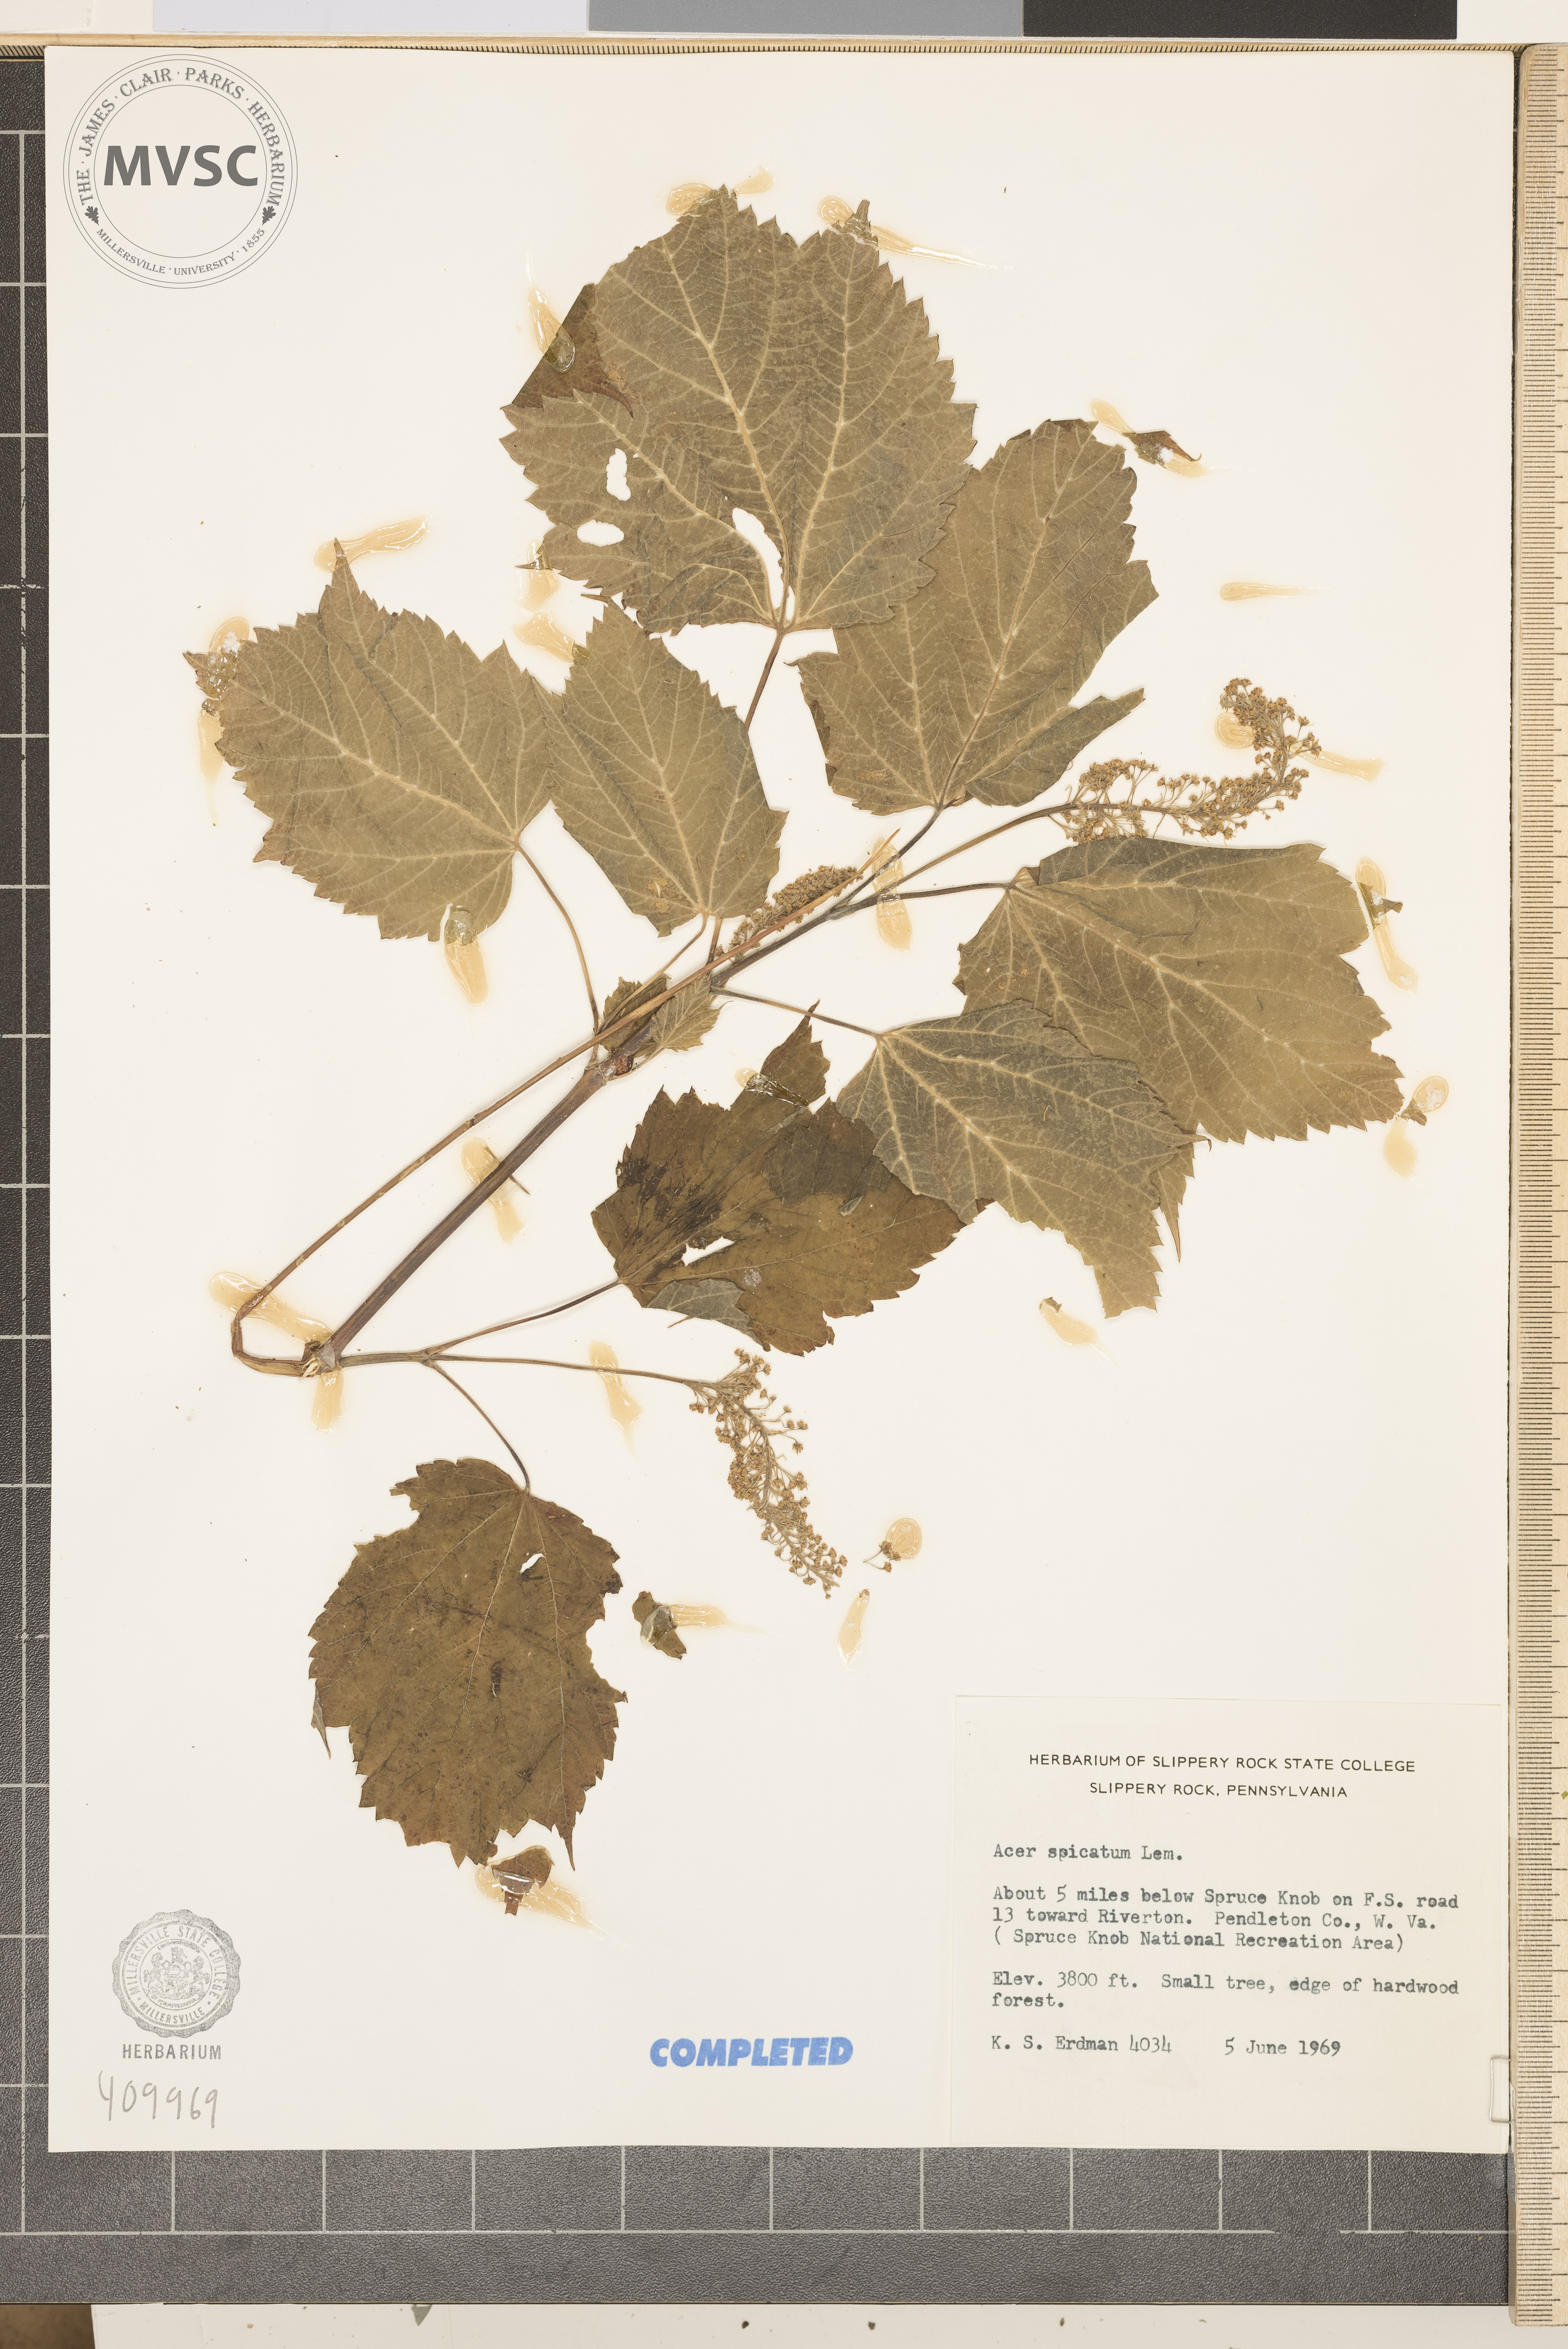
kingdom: Plantae
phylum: Tracheophyta
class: Magnoliopsida
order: Sapindales
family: Sapindaceae
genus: Acer
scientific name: Acer spicatum
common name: Mountain maple
